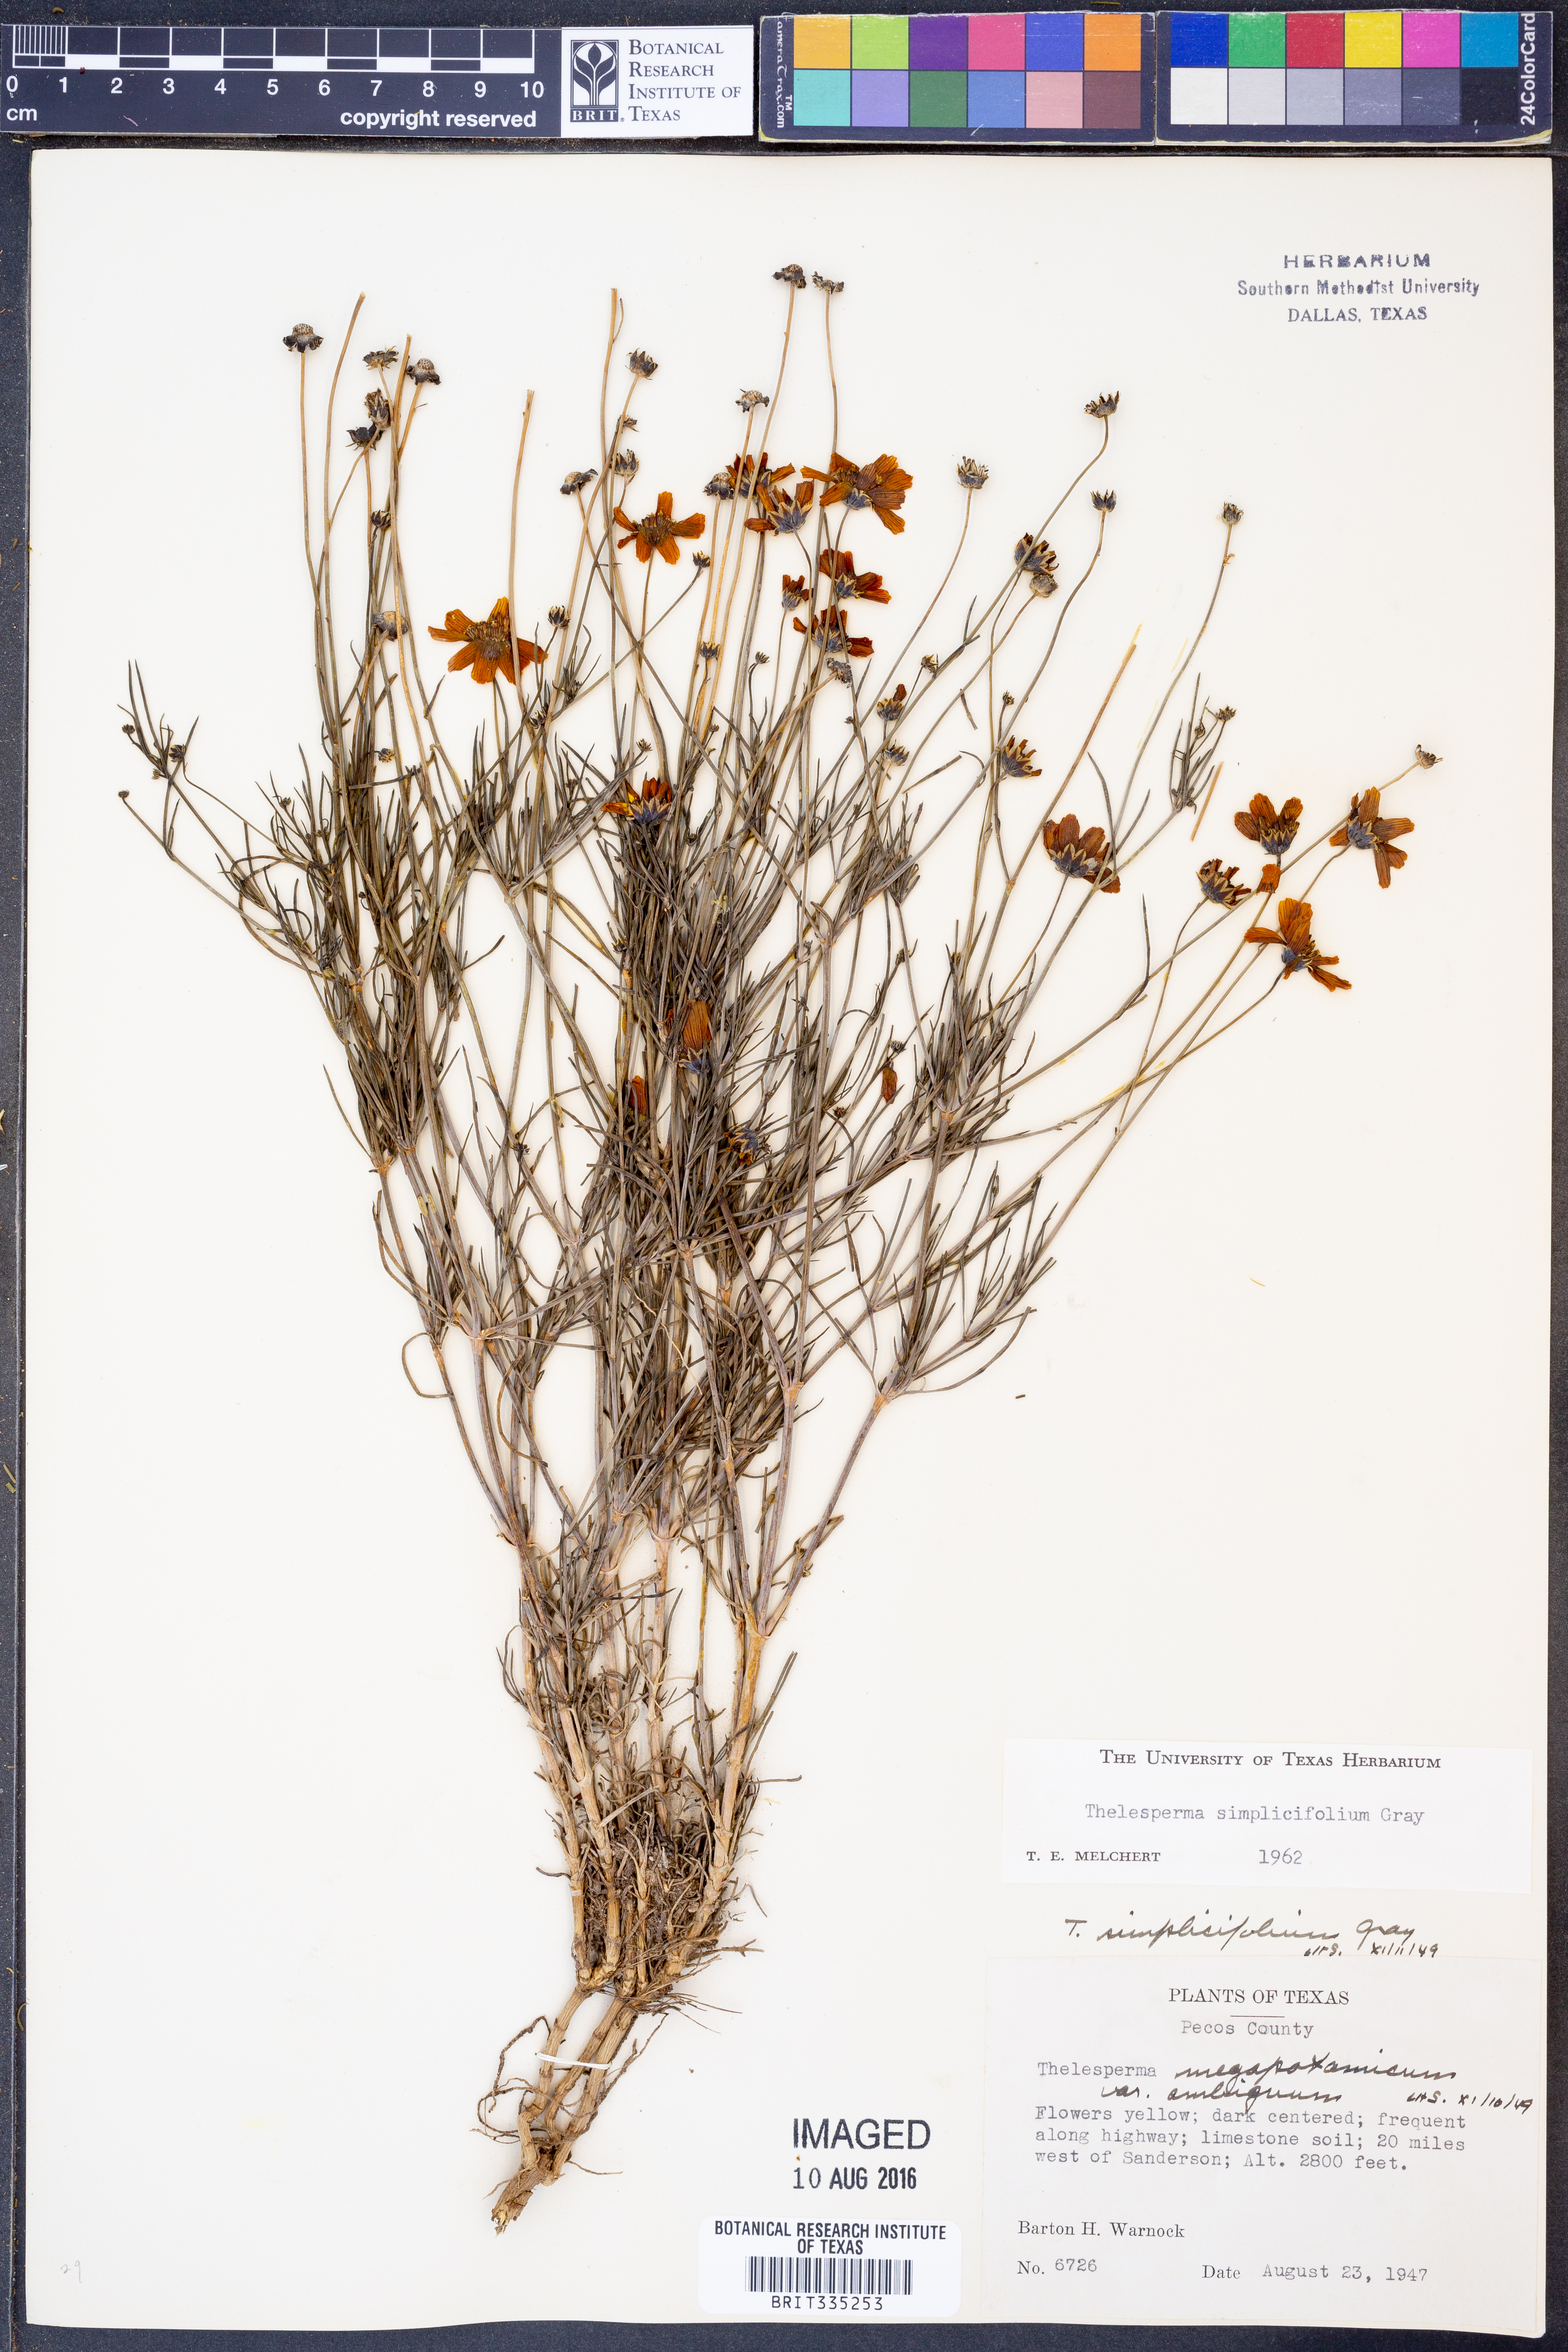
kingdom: Plantae
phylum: Tracheophyta
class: Magnoliopsida
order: Asterales
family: Asteraceae
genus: Thelesperma
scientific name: Thelesperma simplicifolium
